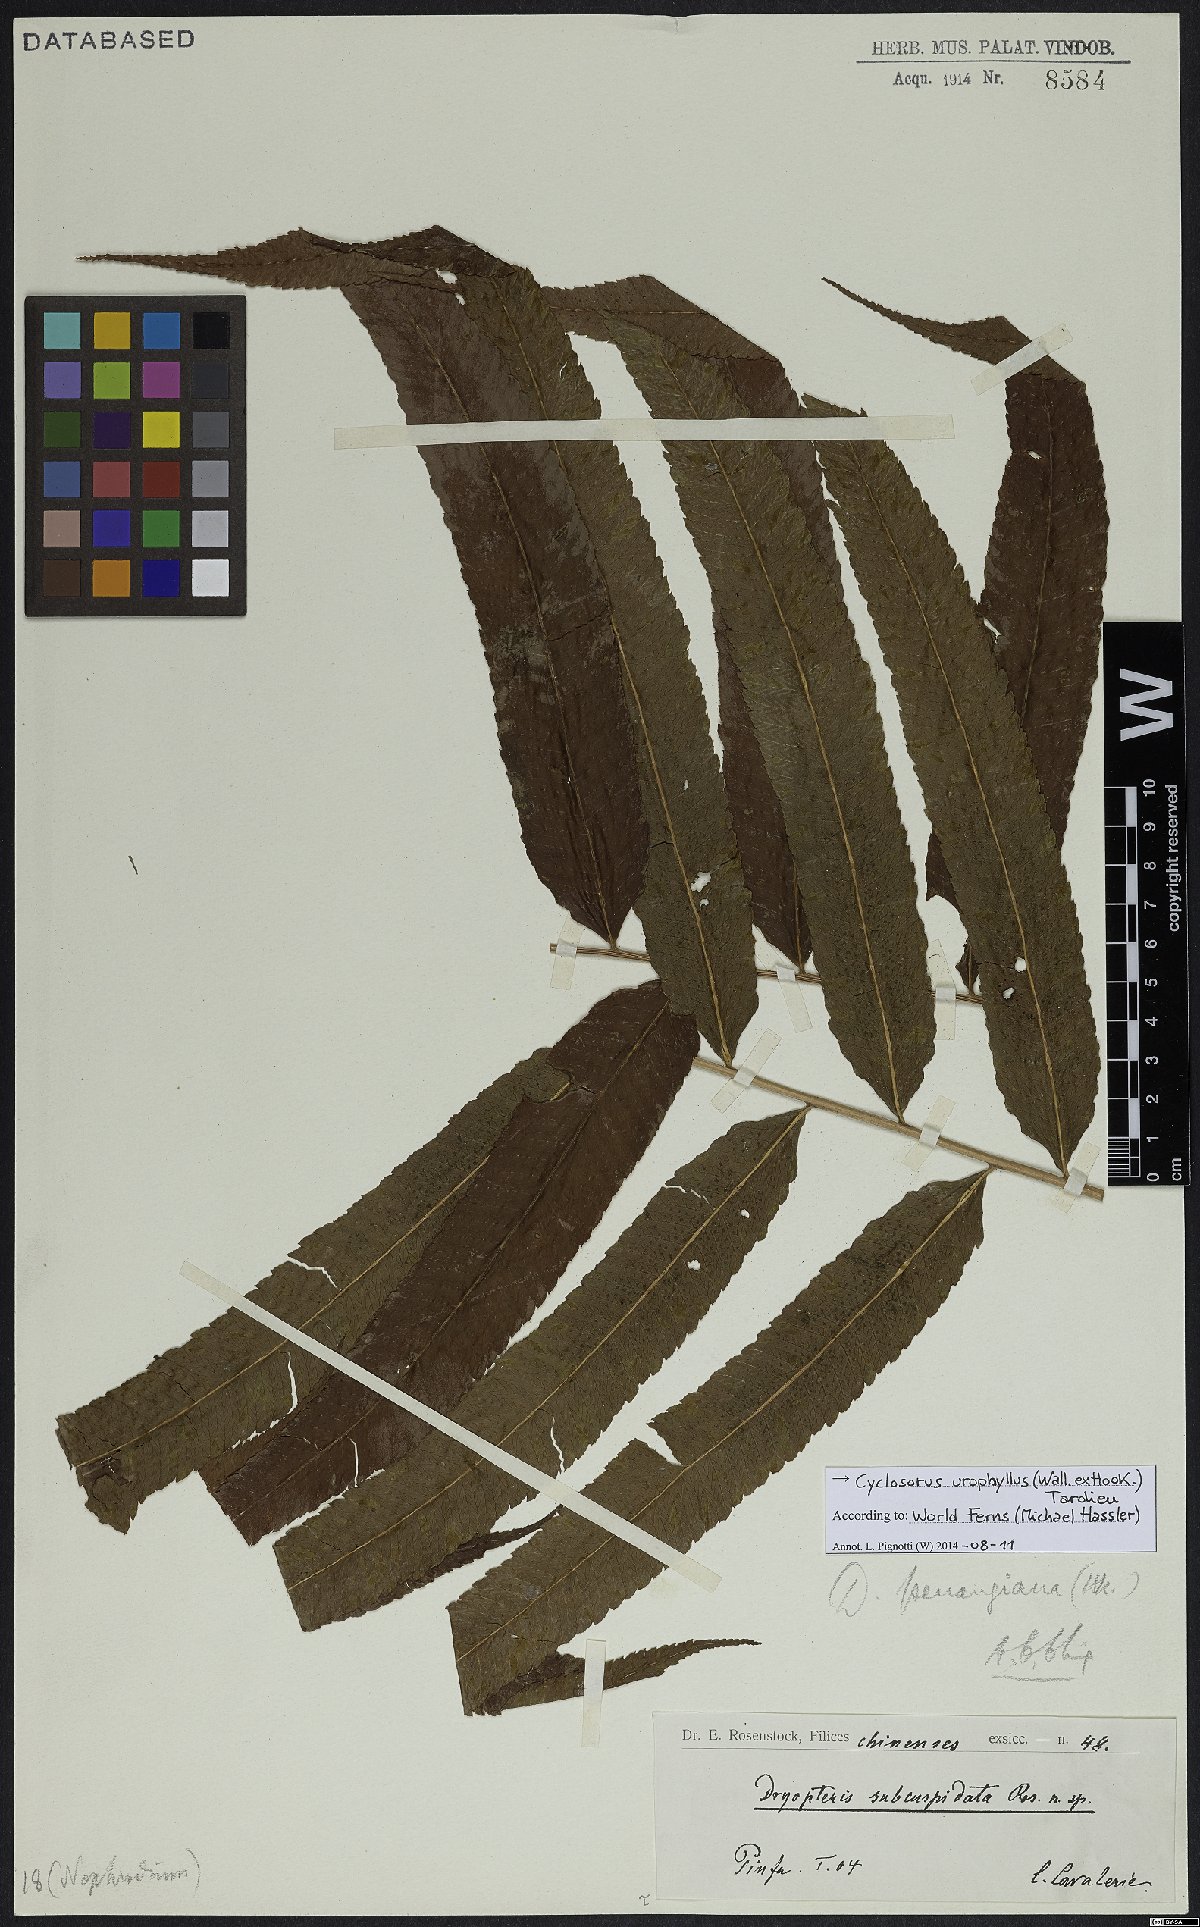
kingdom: Plantae
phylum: Tracheophyta
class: Polypodiopsida
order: Polypodiales
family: Thelypteridaceae
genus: Abacopteris
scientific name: Abacopteris repanda
